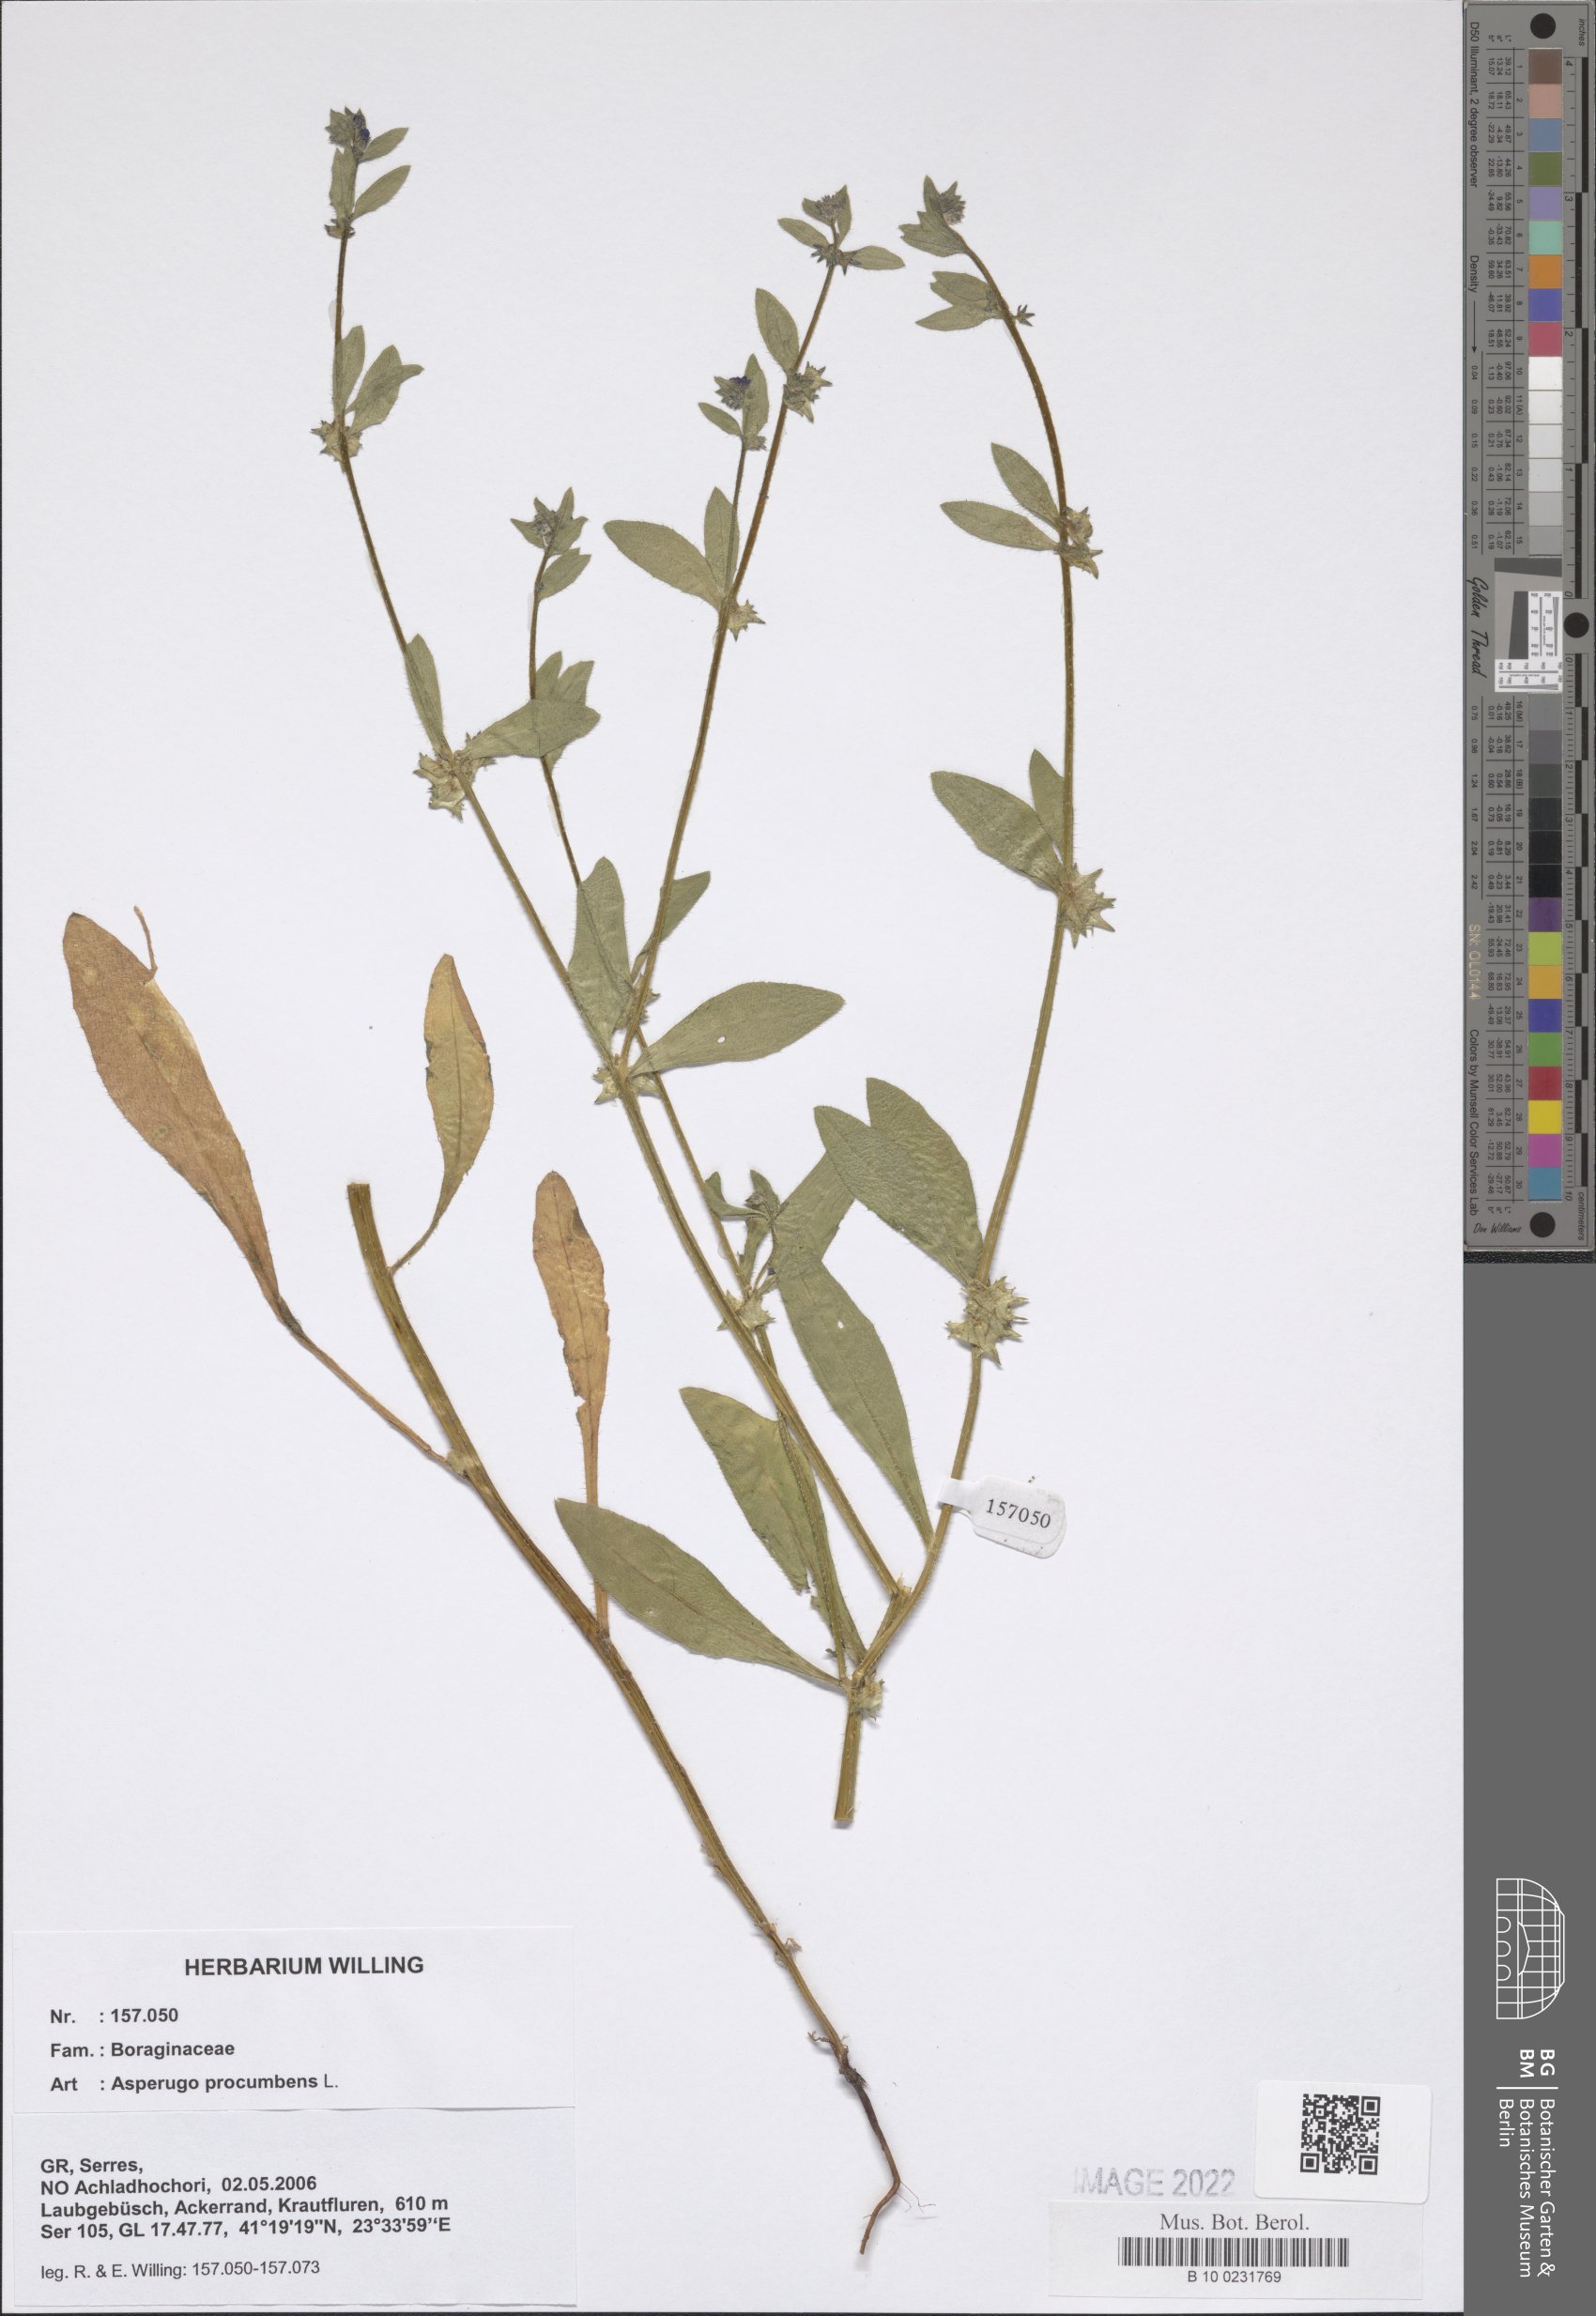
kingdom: Plantae
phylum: Tracheophyta
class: Magnoliopsida
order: Boraginales
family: Boraginaceae
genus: Asperugo
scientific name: Asperugo procumbens
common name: Madwort
